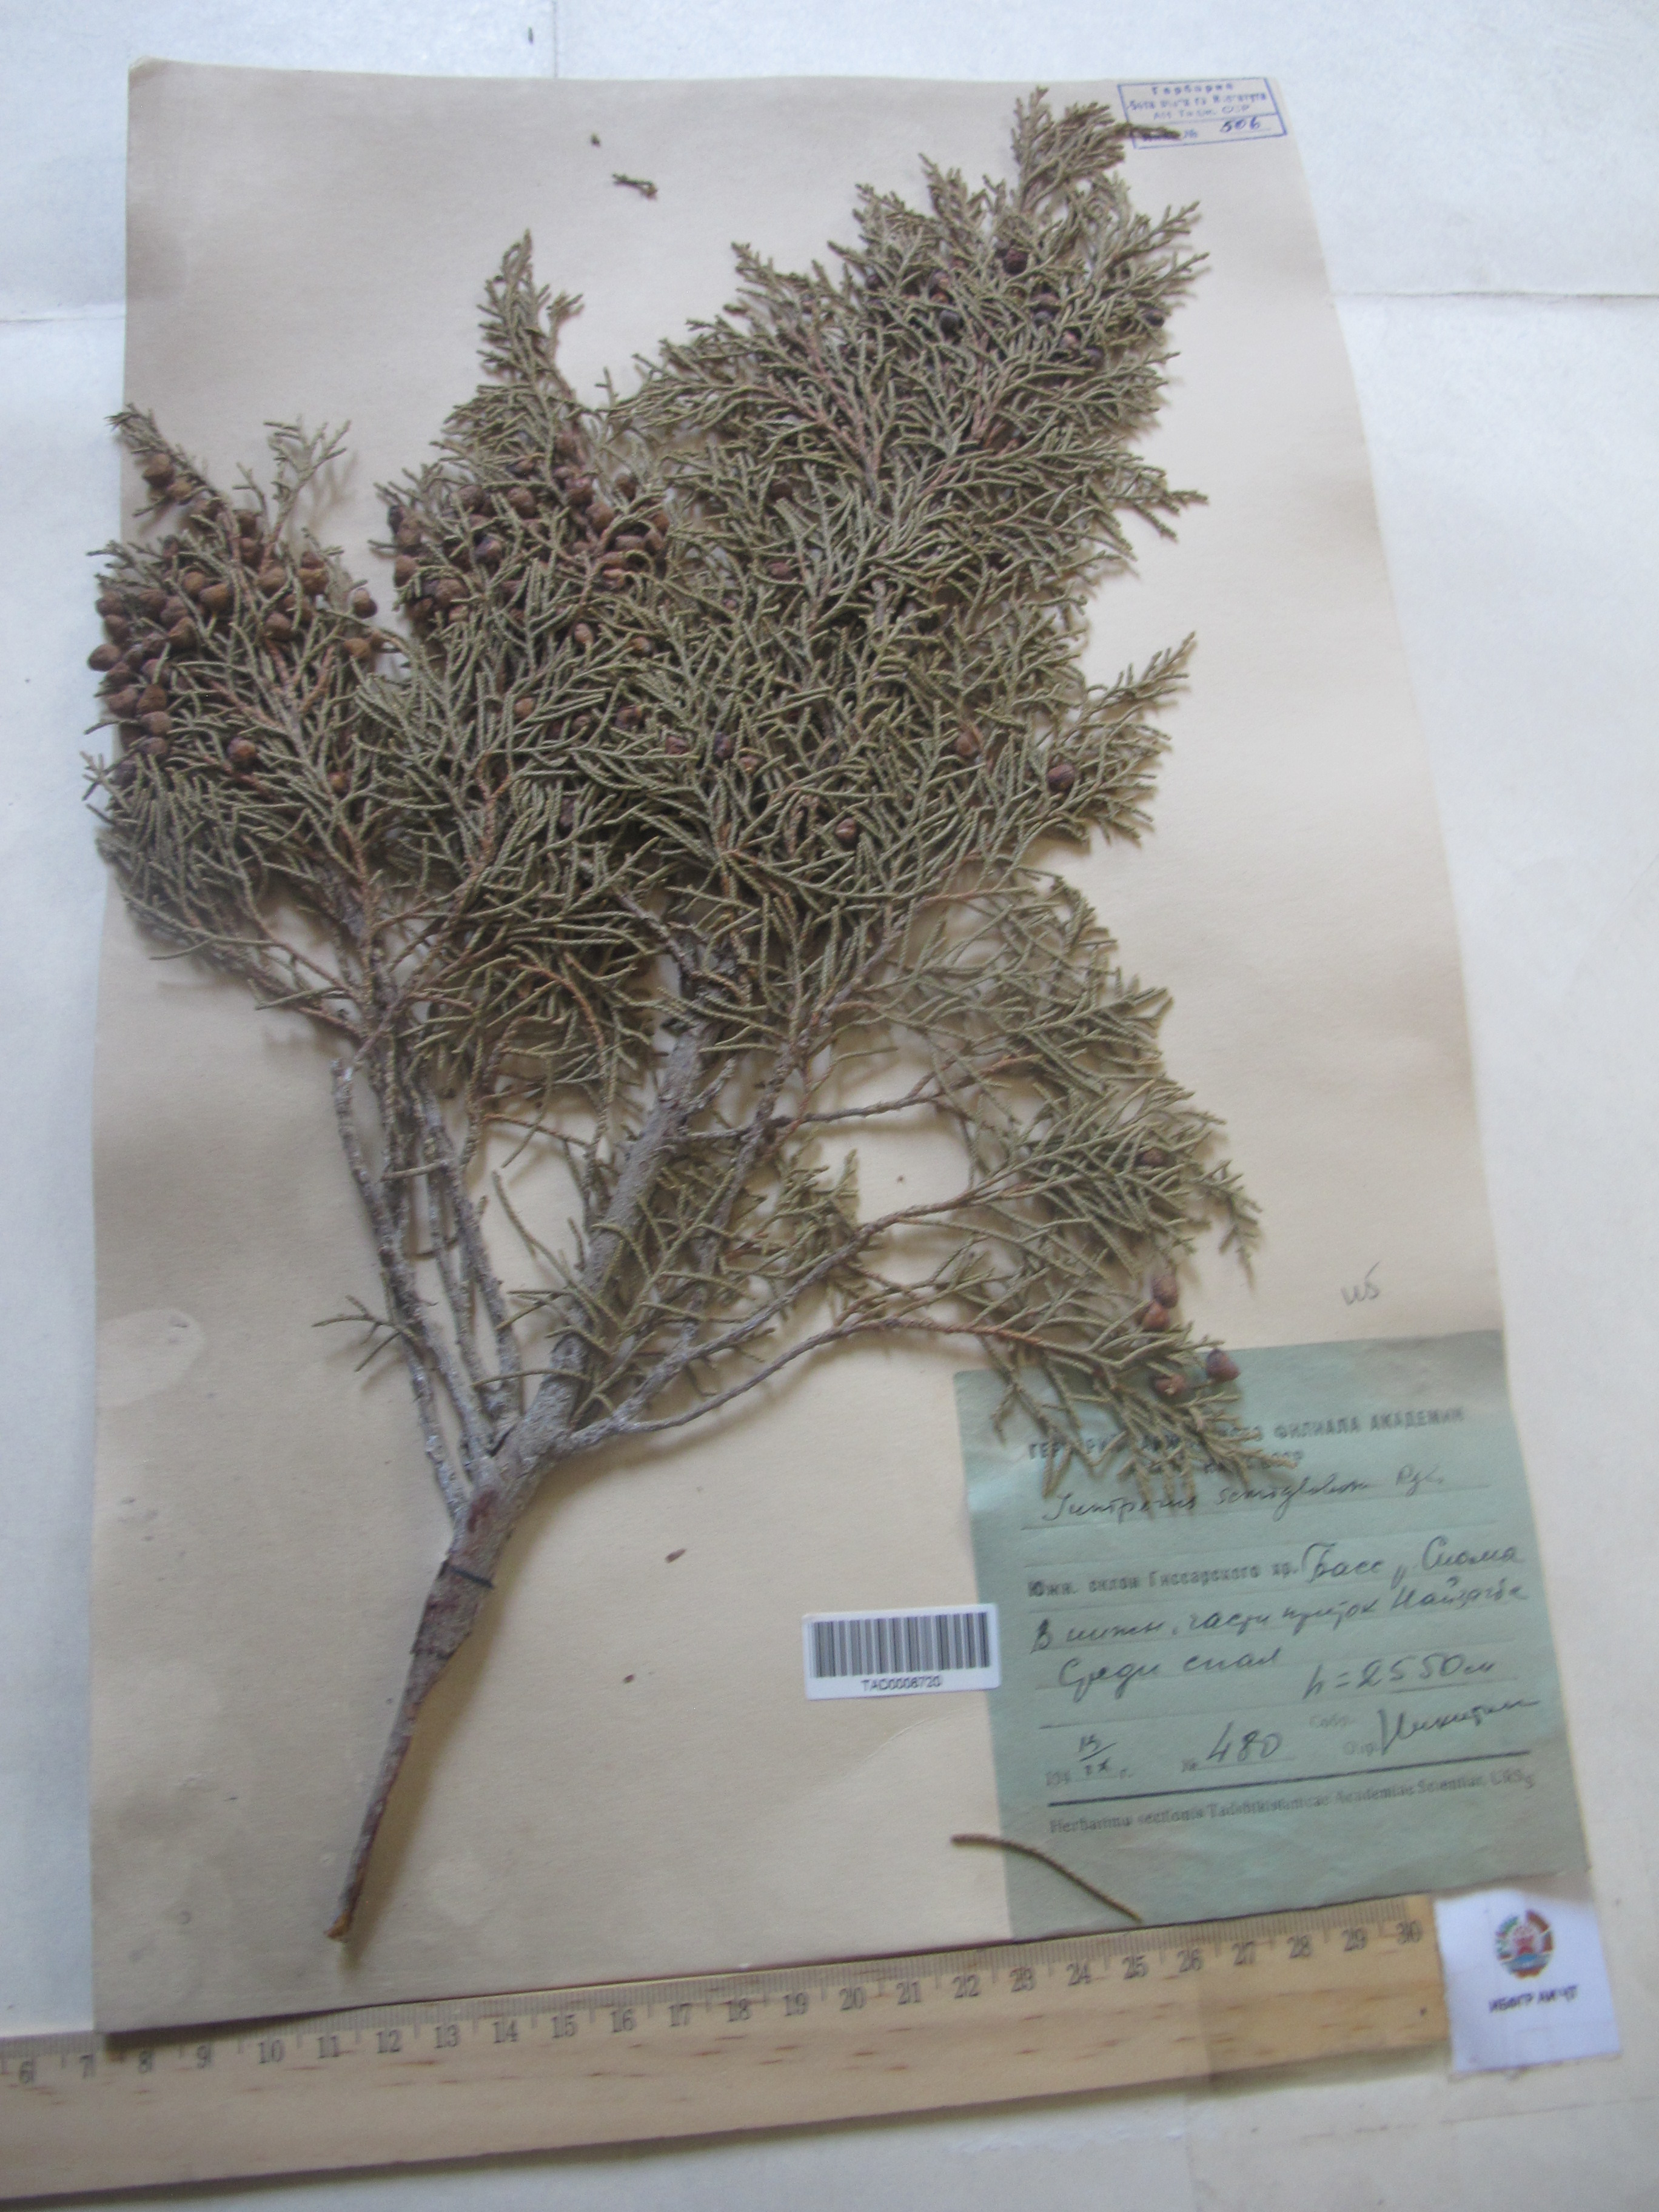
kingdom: Plantae
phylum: Tracheophyta
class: Pinopsida
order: Pinales
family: Cupressaceae
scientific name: Cupressaceae
